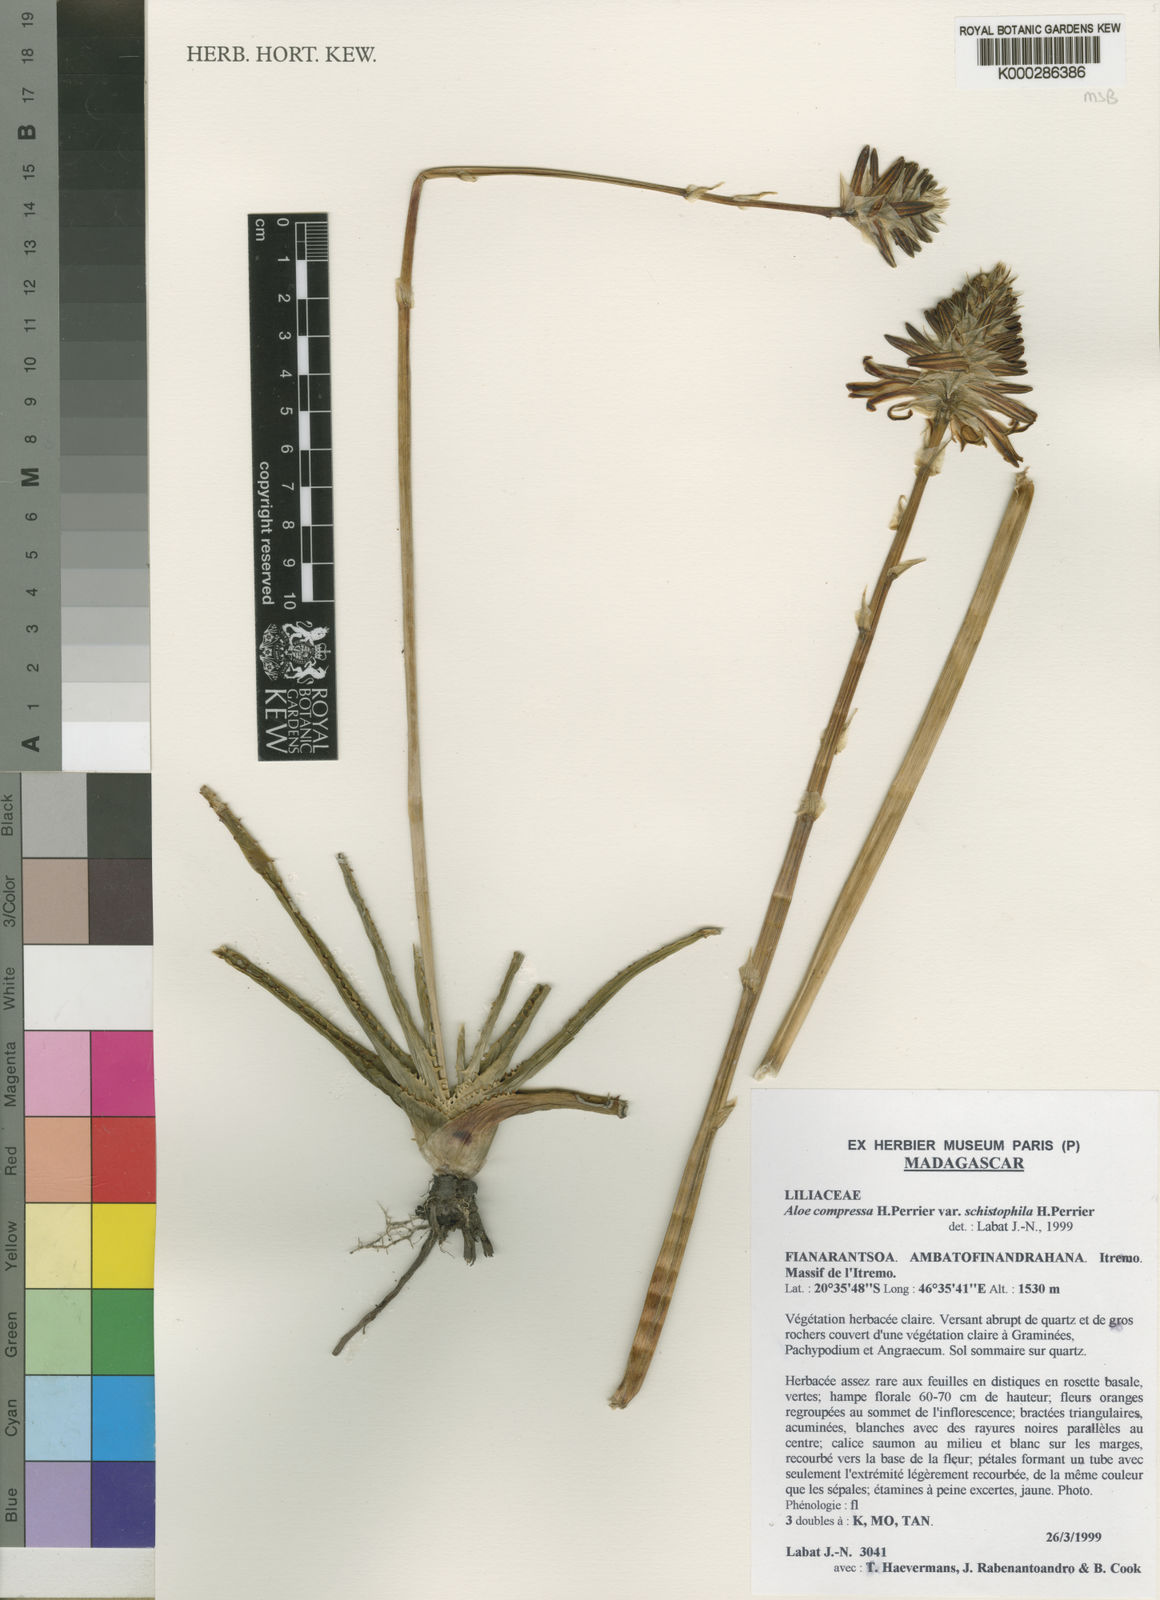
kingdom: Plantae
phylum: Tracheophyta
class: Liliopsida
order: Asparagales
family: Asphodelaceae
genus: Aloe
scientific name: Aloe
